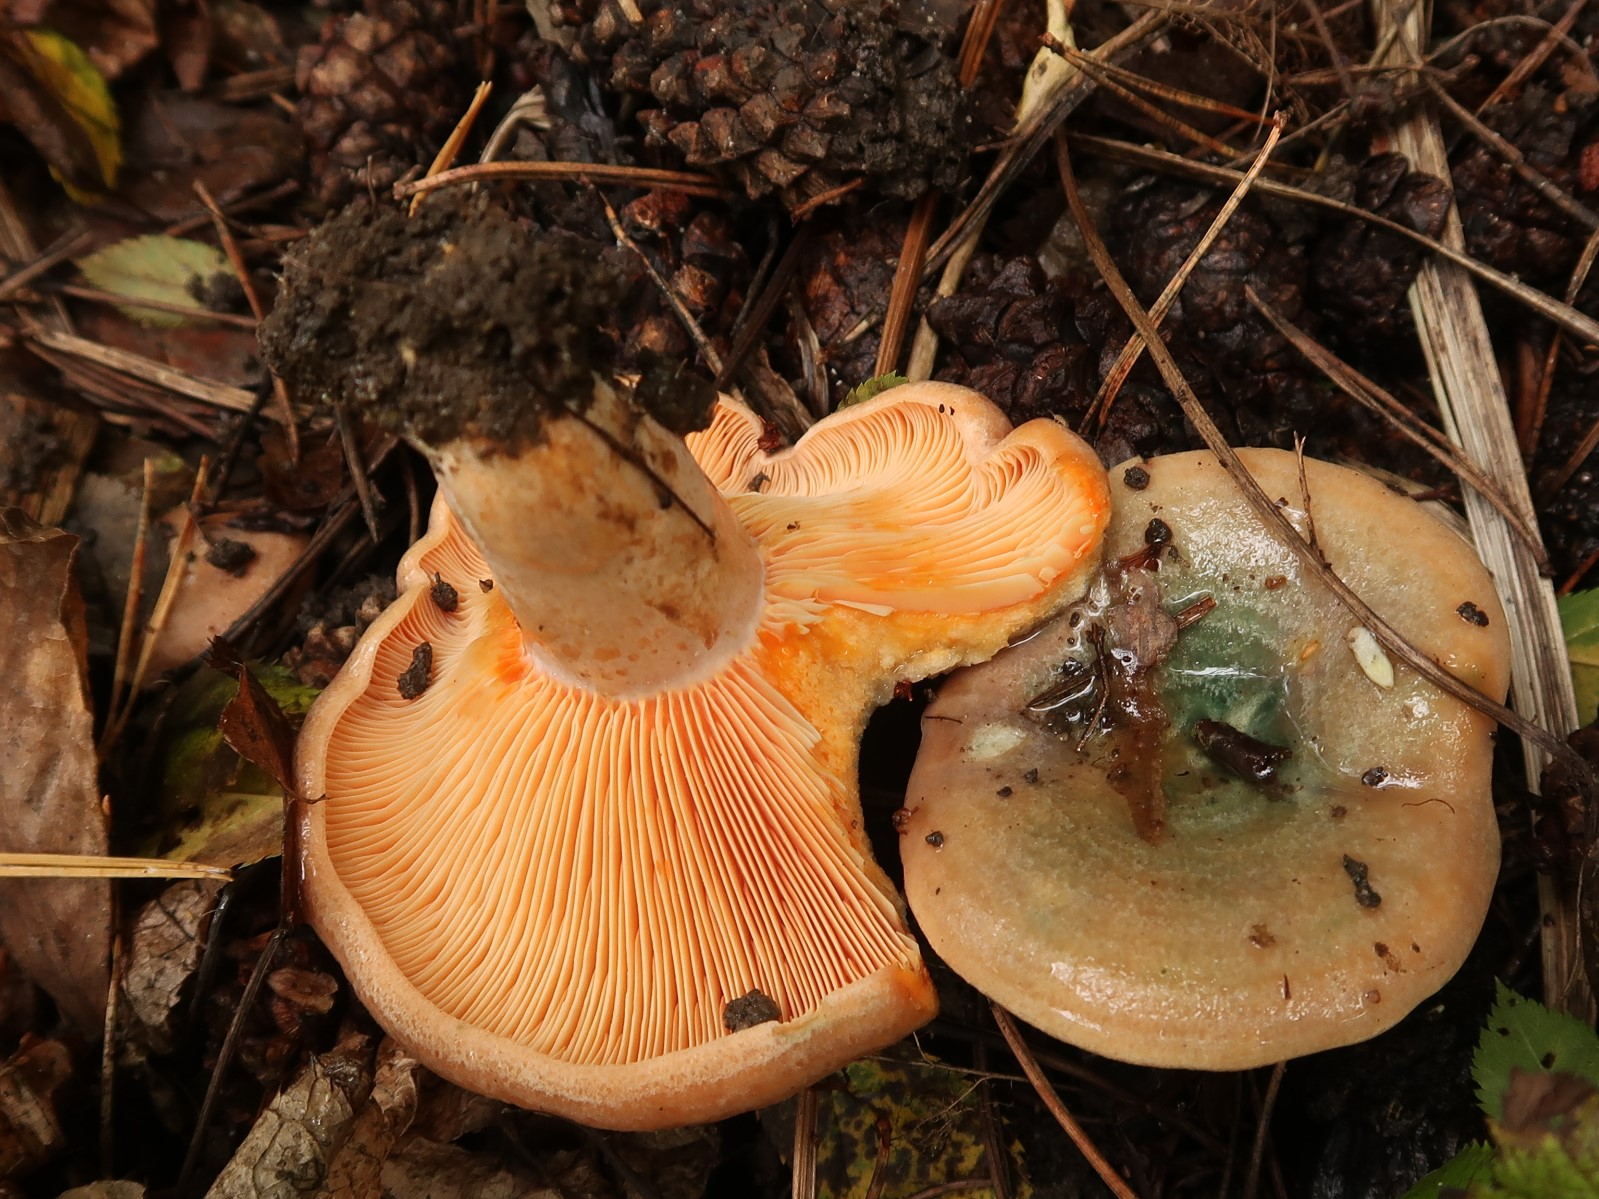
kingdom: Fungi
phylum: Basidiomycota
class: Agaricomycetes
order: Russulales
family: Russulaceae
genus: Lactarius
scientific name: Lactarius deliciosus
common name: velsmagende mælkehat
